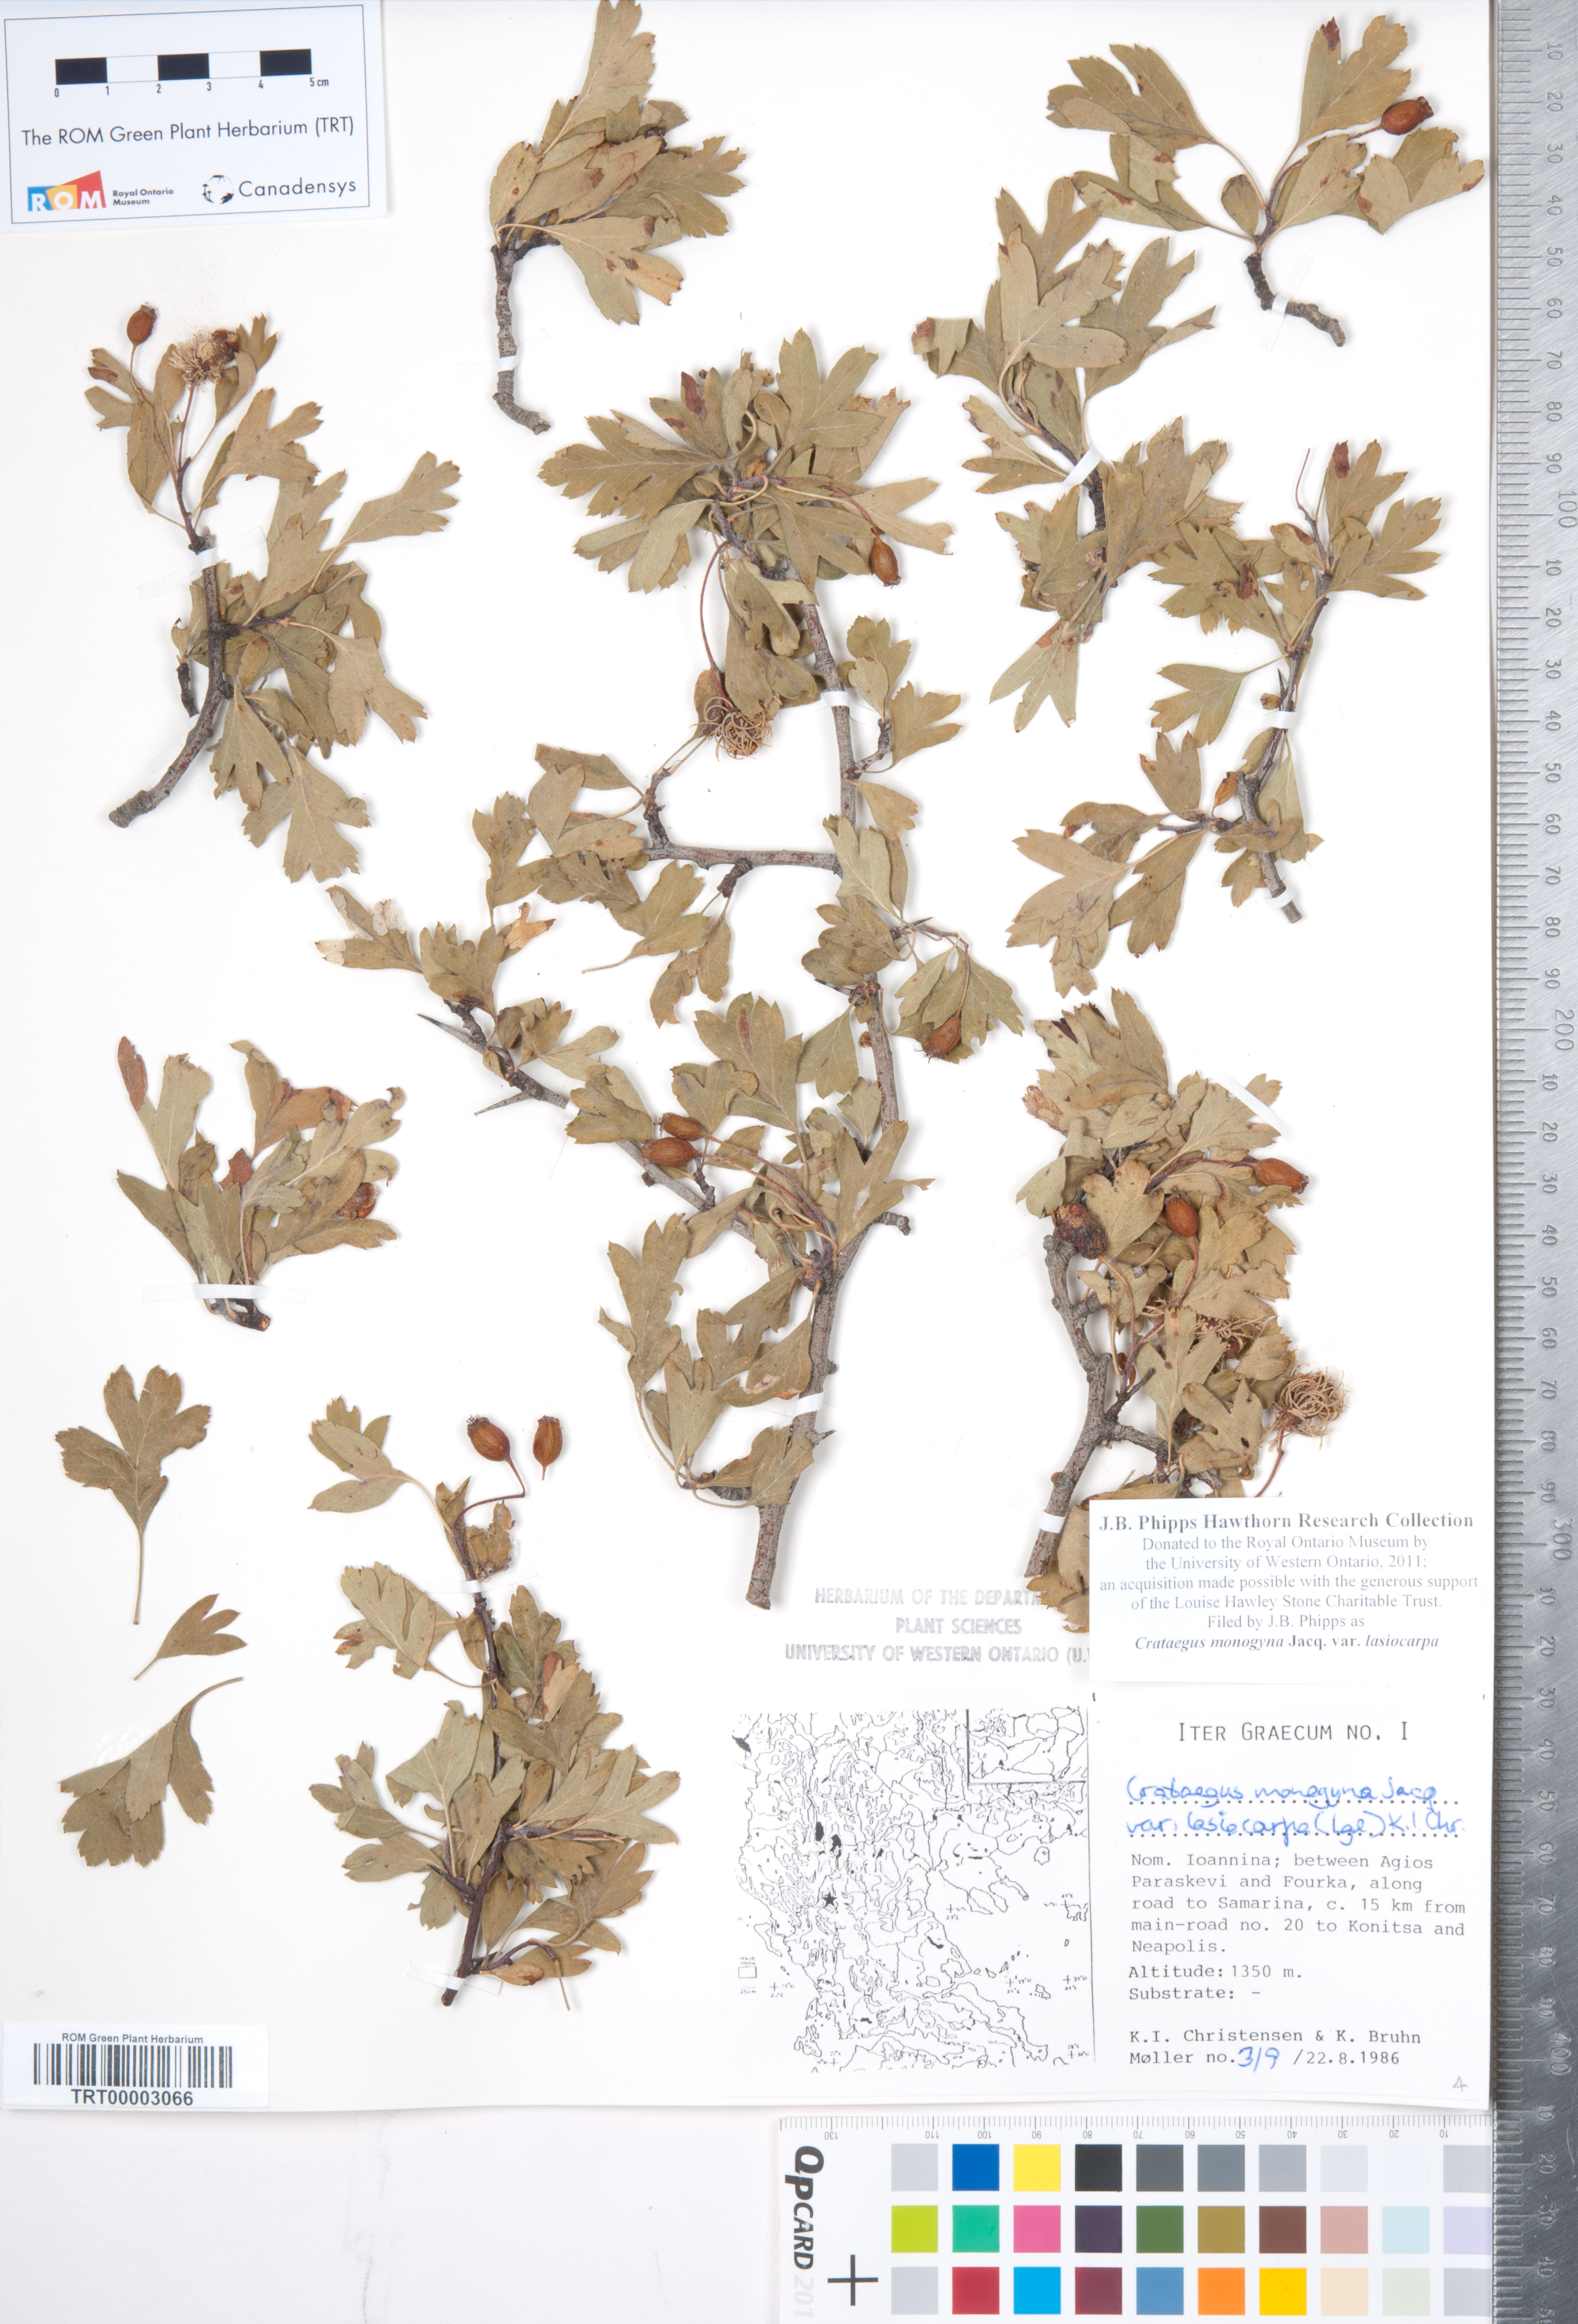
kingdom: Plantae
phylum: Tracheophyta
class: Magnoliopsida
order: Rosales
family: Rosaceae
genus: Crataegus
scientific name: Crataegus laciniata
